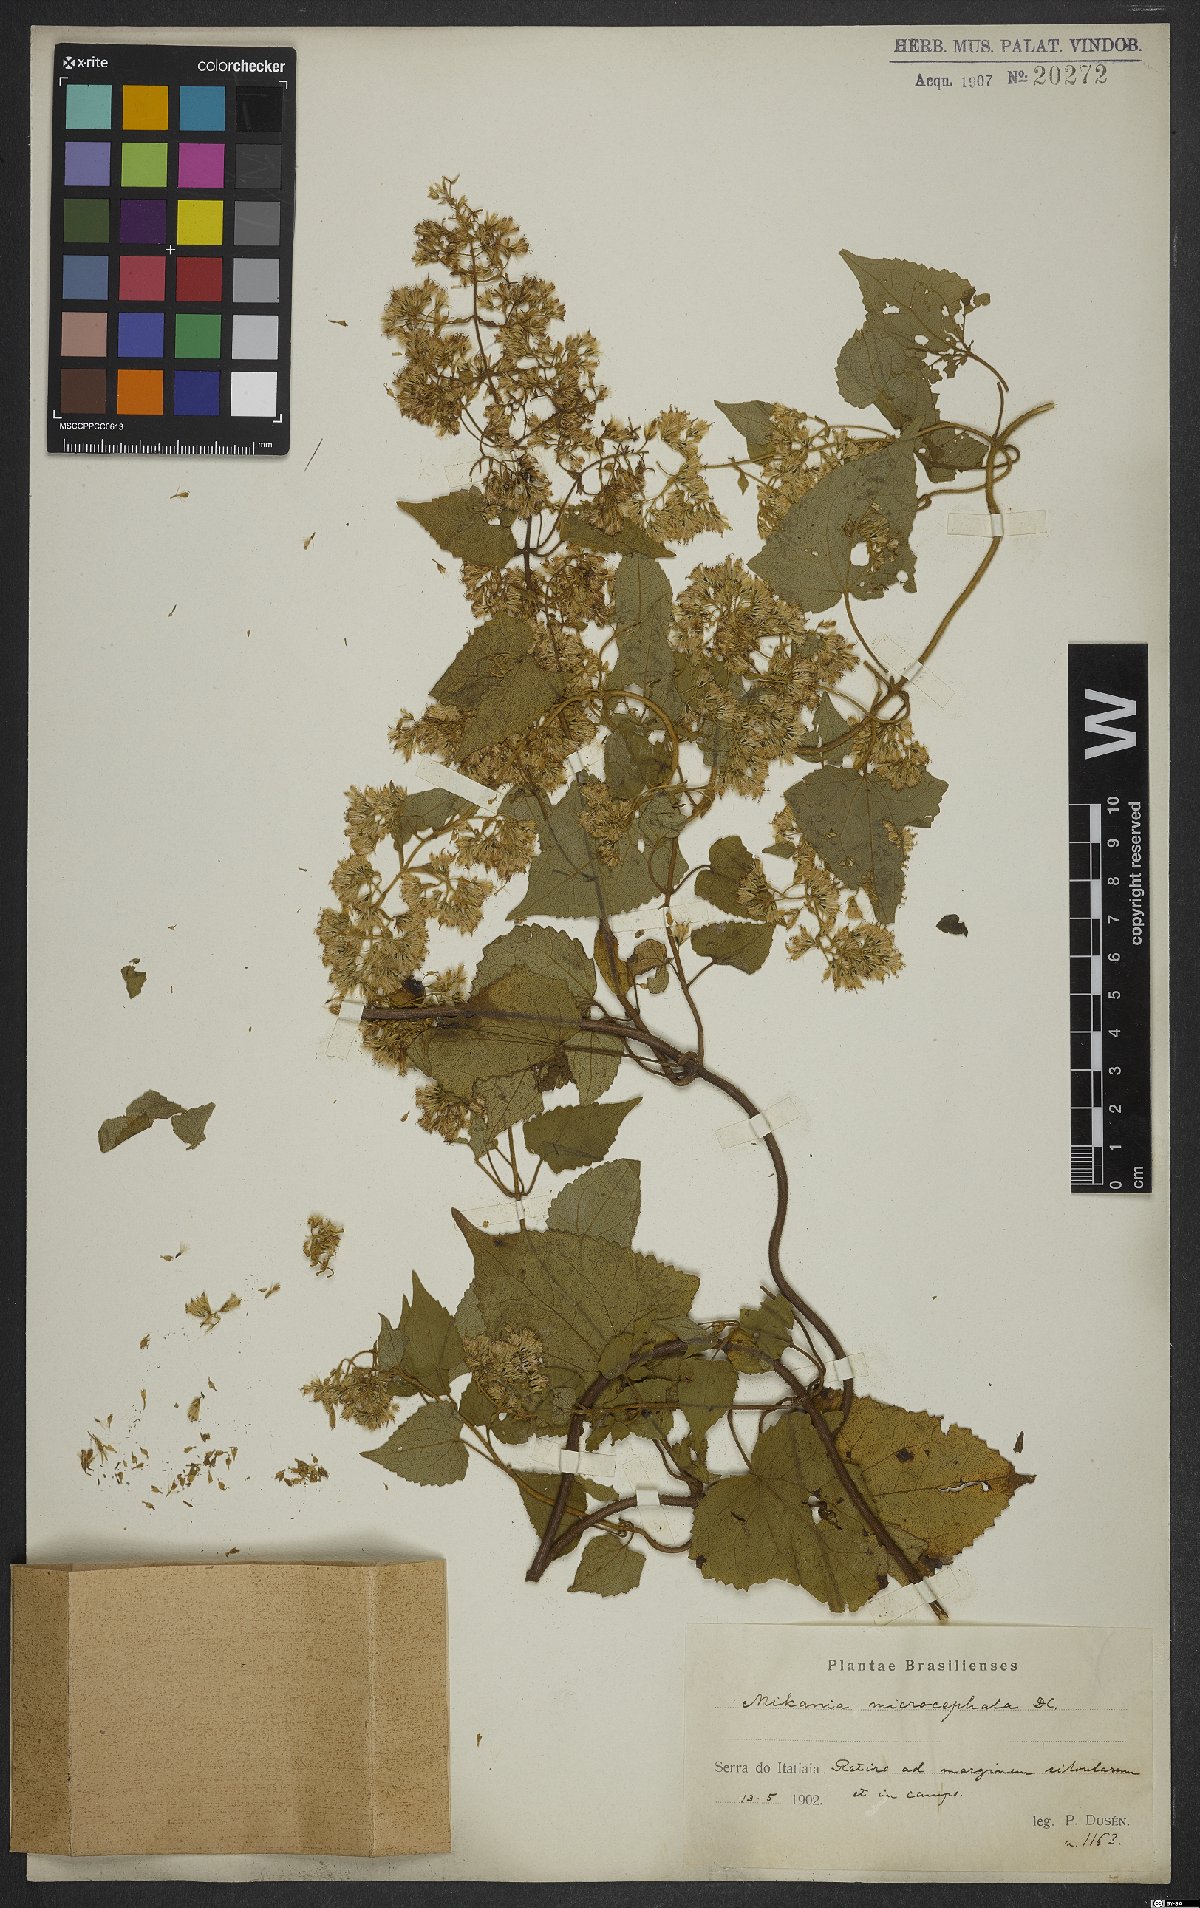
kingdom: Plantae
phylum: Tracheophyta
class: Magnoliopsida
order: Asterales
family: Asteraceae
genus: Mikania
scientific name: Mikania microcephala
